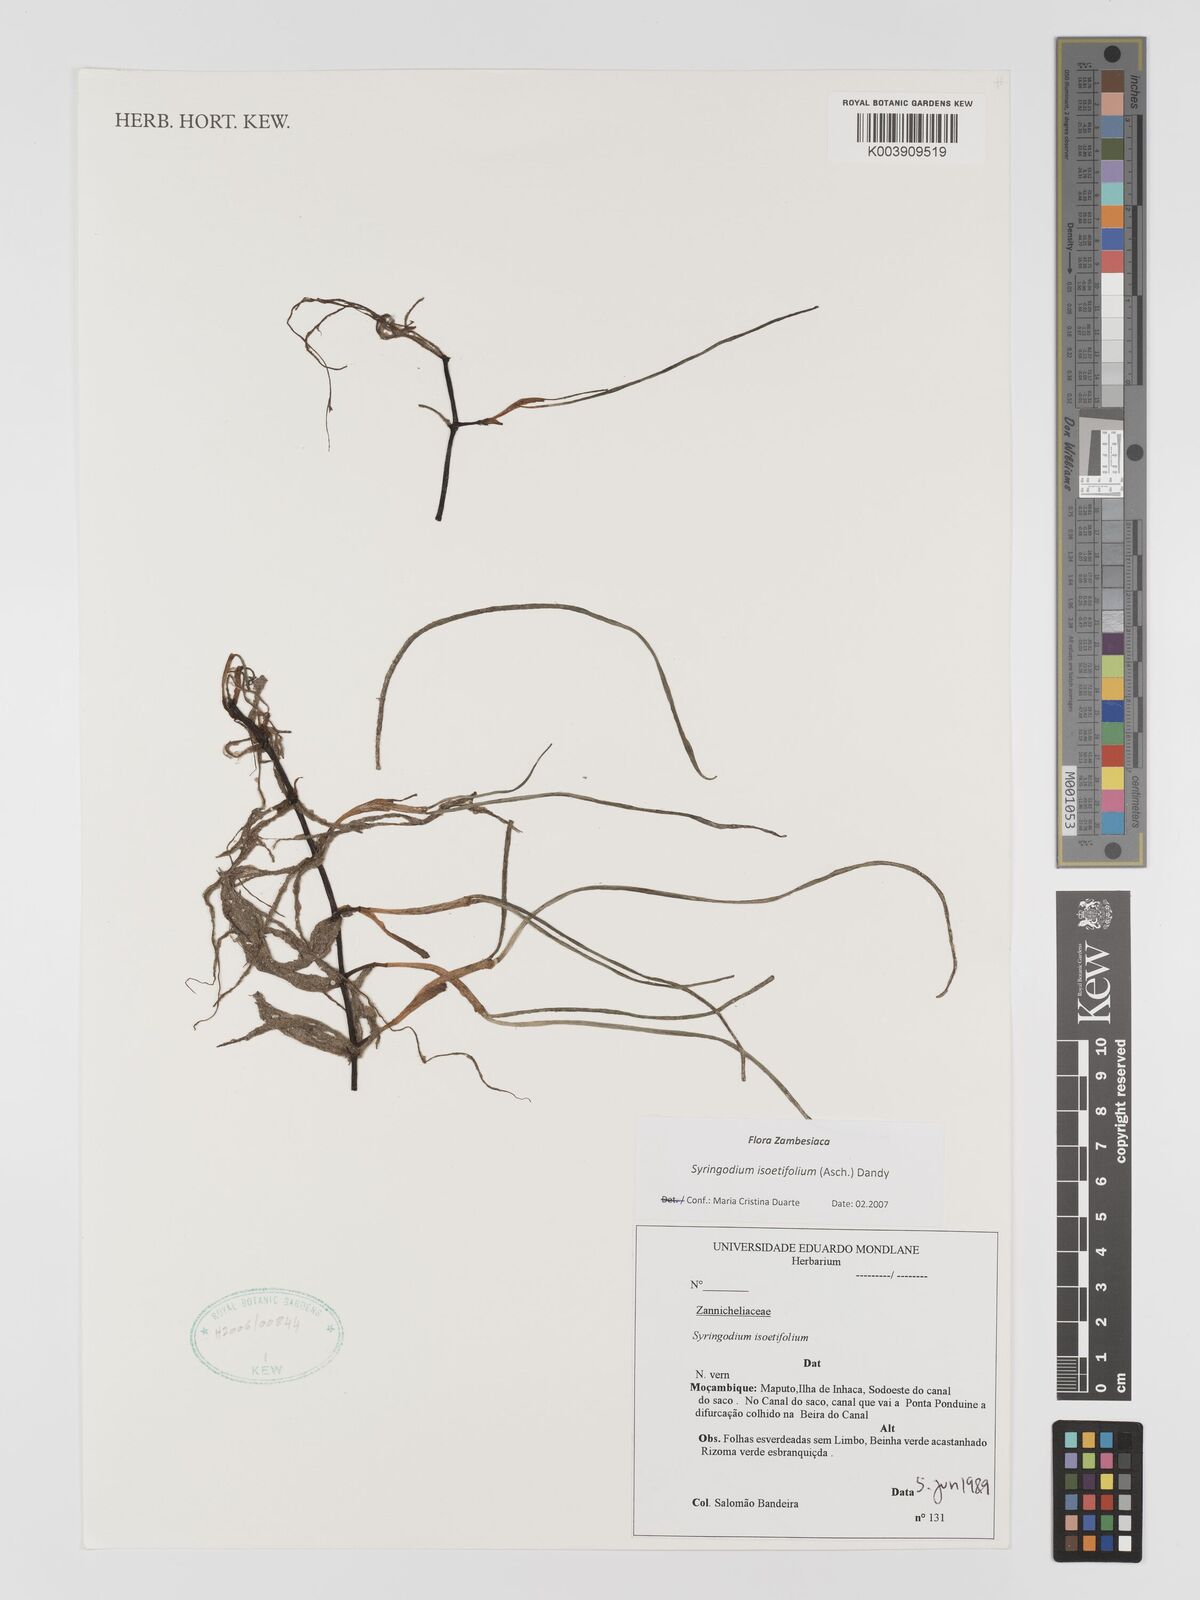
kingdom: Plantae
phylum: Tracheophyta
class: Liliopsida
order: Alismatales
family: Cymodoceaceae
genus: Syringodium
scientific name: Syringodium isoetifolium
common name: Species code: si
